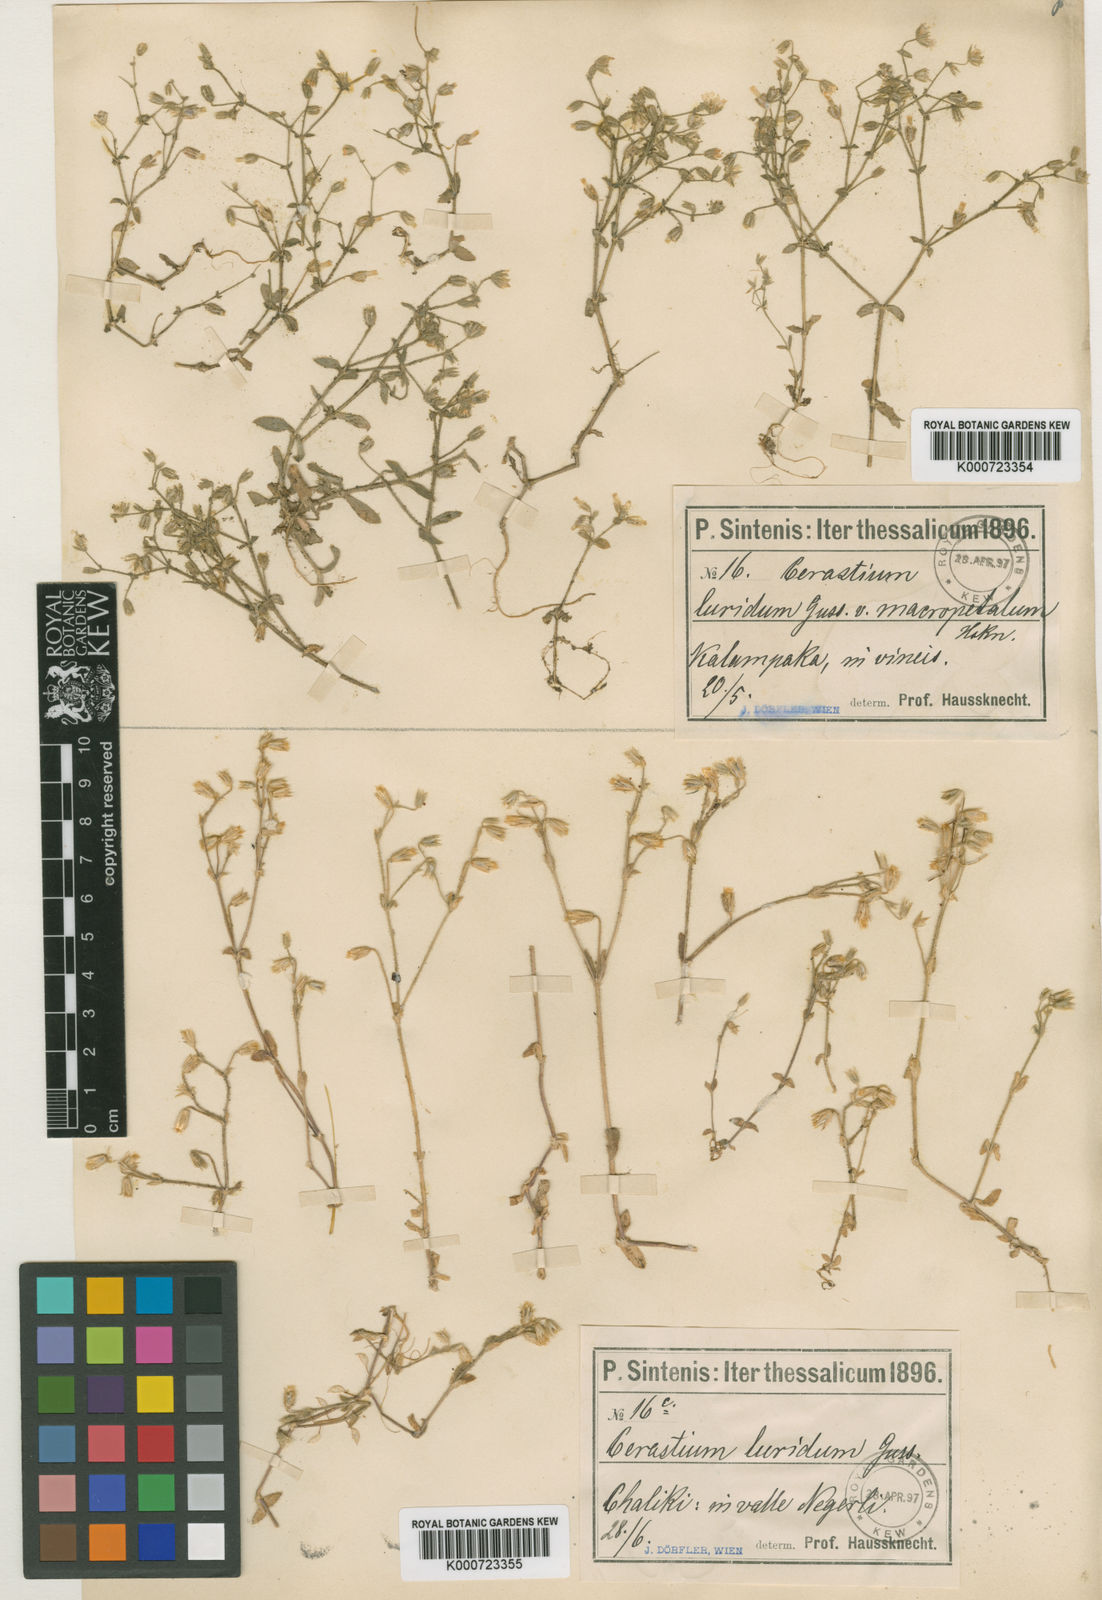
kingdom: Plantae
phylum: Tracheophyta
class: Magnoliopsida
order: Caryophyllales
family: Caryophyllaceae
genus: Cerastium
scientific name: Cerastium
